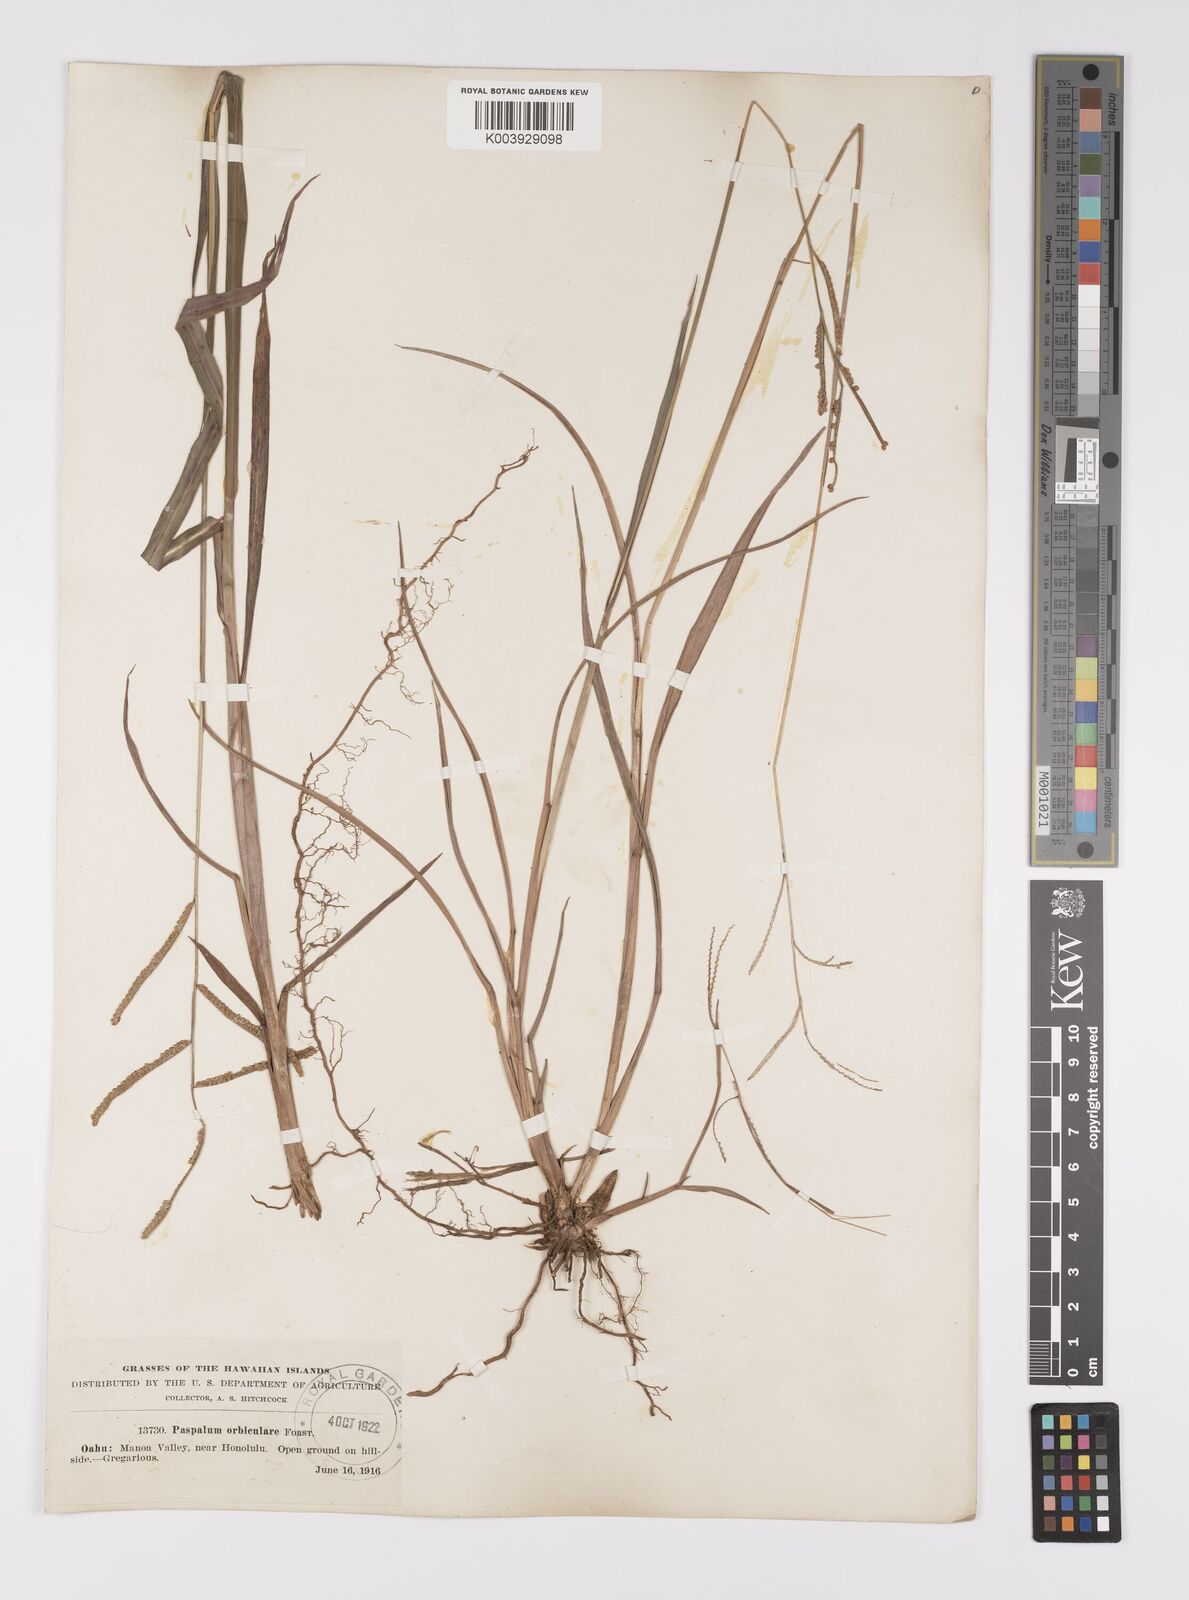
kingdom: Plantae
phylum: Tracheophyta
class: Liliopsida
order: Poales
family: Poaceae
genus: Paspalum
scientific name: Paspalum scrobiculatum
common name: Kodo millet
